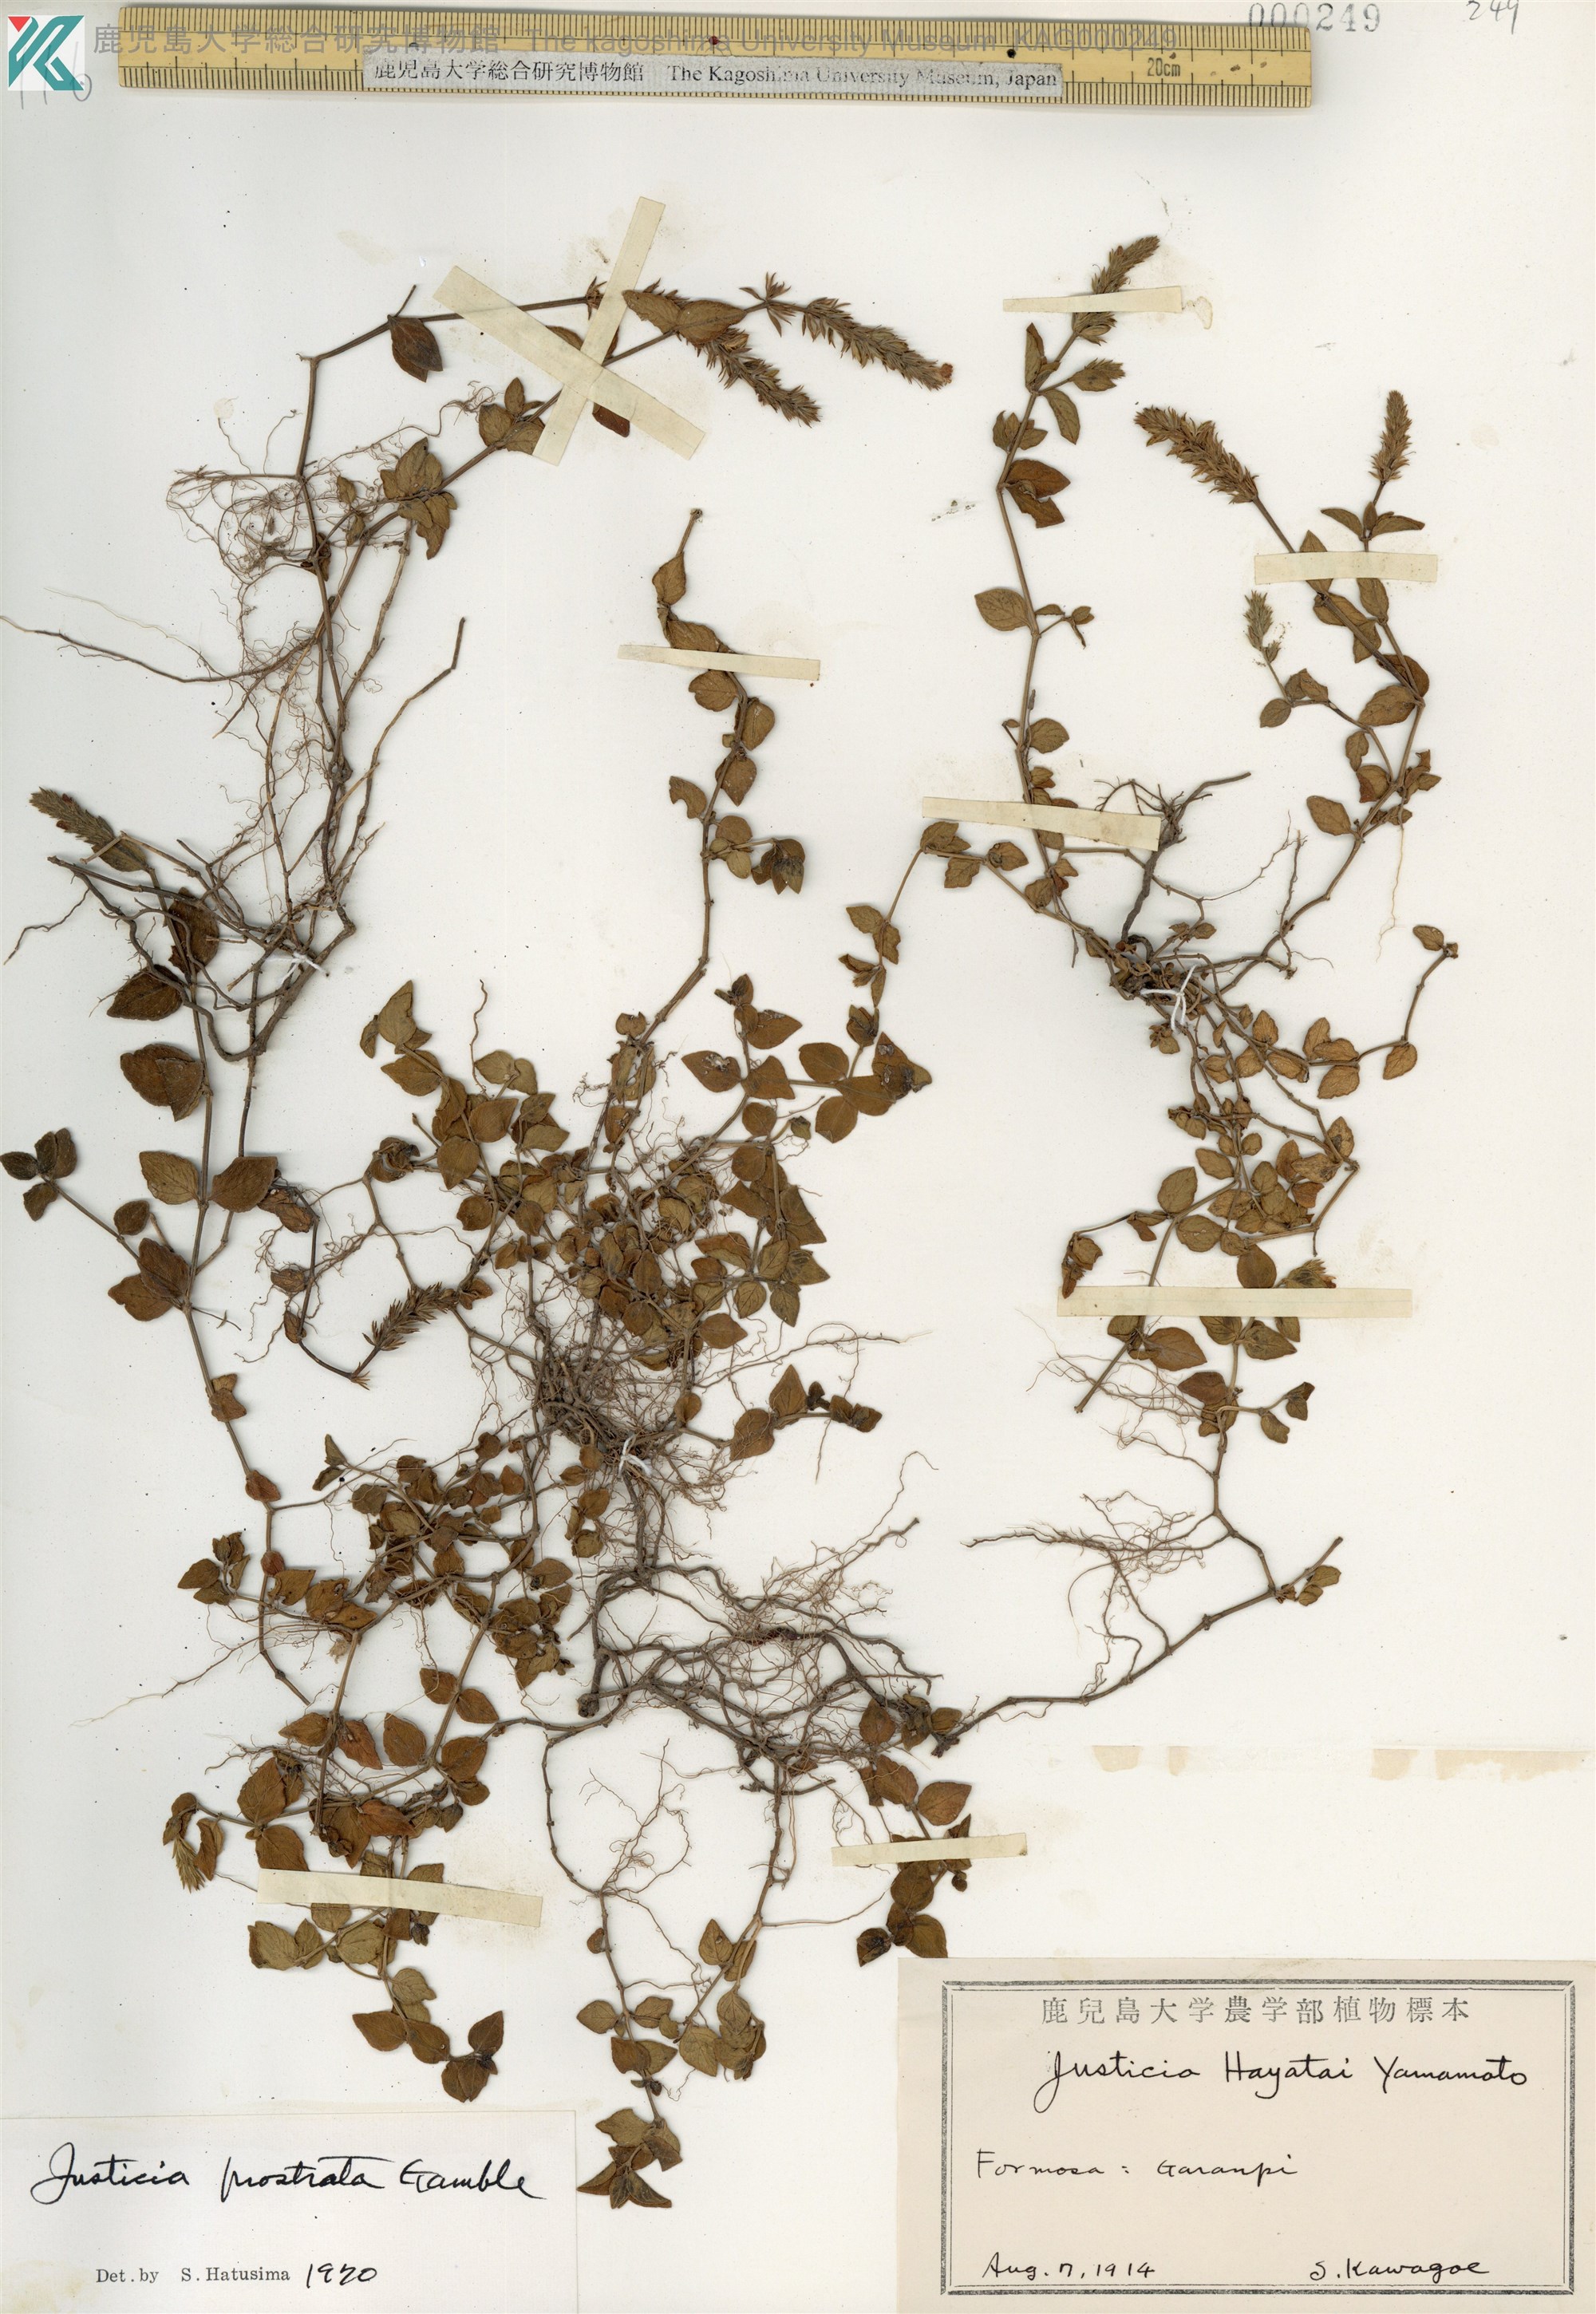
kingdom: Plantae
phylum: Tracheophyta
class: Magnoliopsida
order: Lamiales
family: Acanthaceae
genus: Rostellularia
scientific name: Rostellularia prostrata
